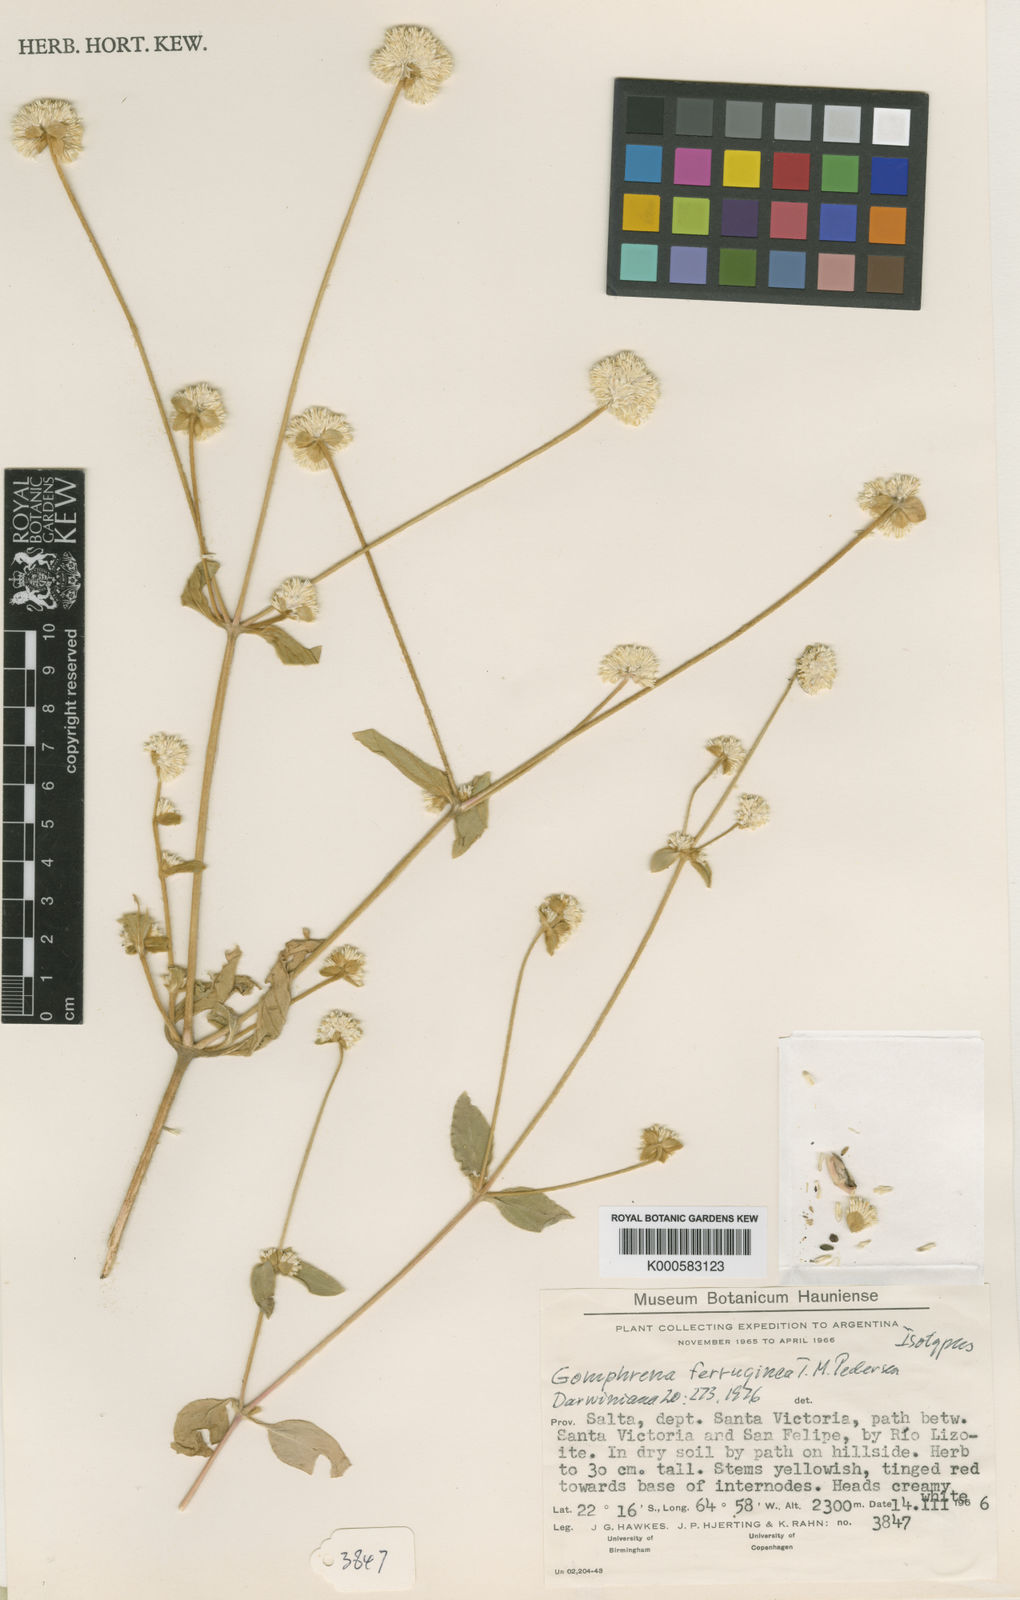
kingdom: Plantae
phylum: Tracheophyta
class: Magnoliopsida
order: Caryophyllales
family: Amaranthaceae
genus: Gomphrena
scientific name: Gomphrena ferruginea
